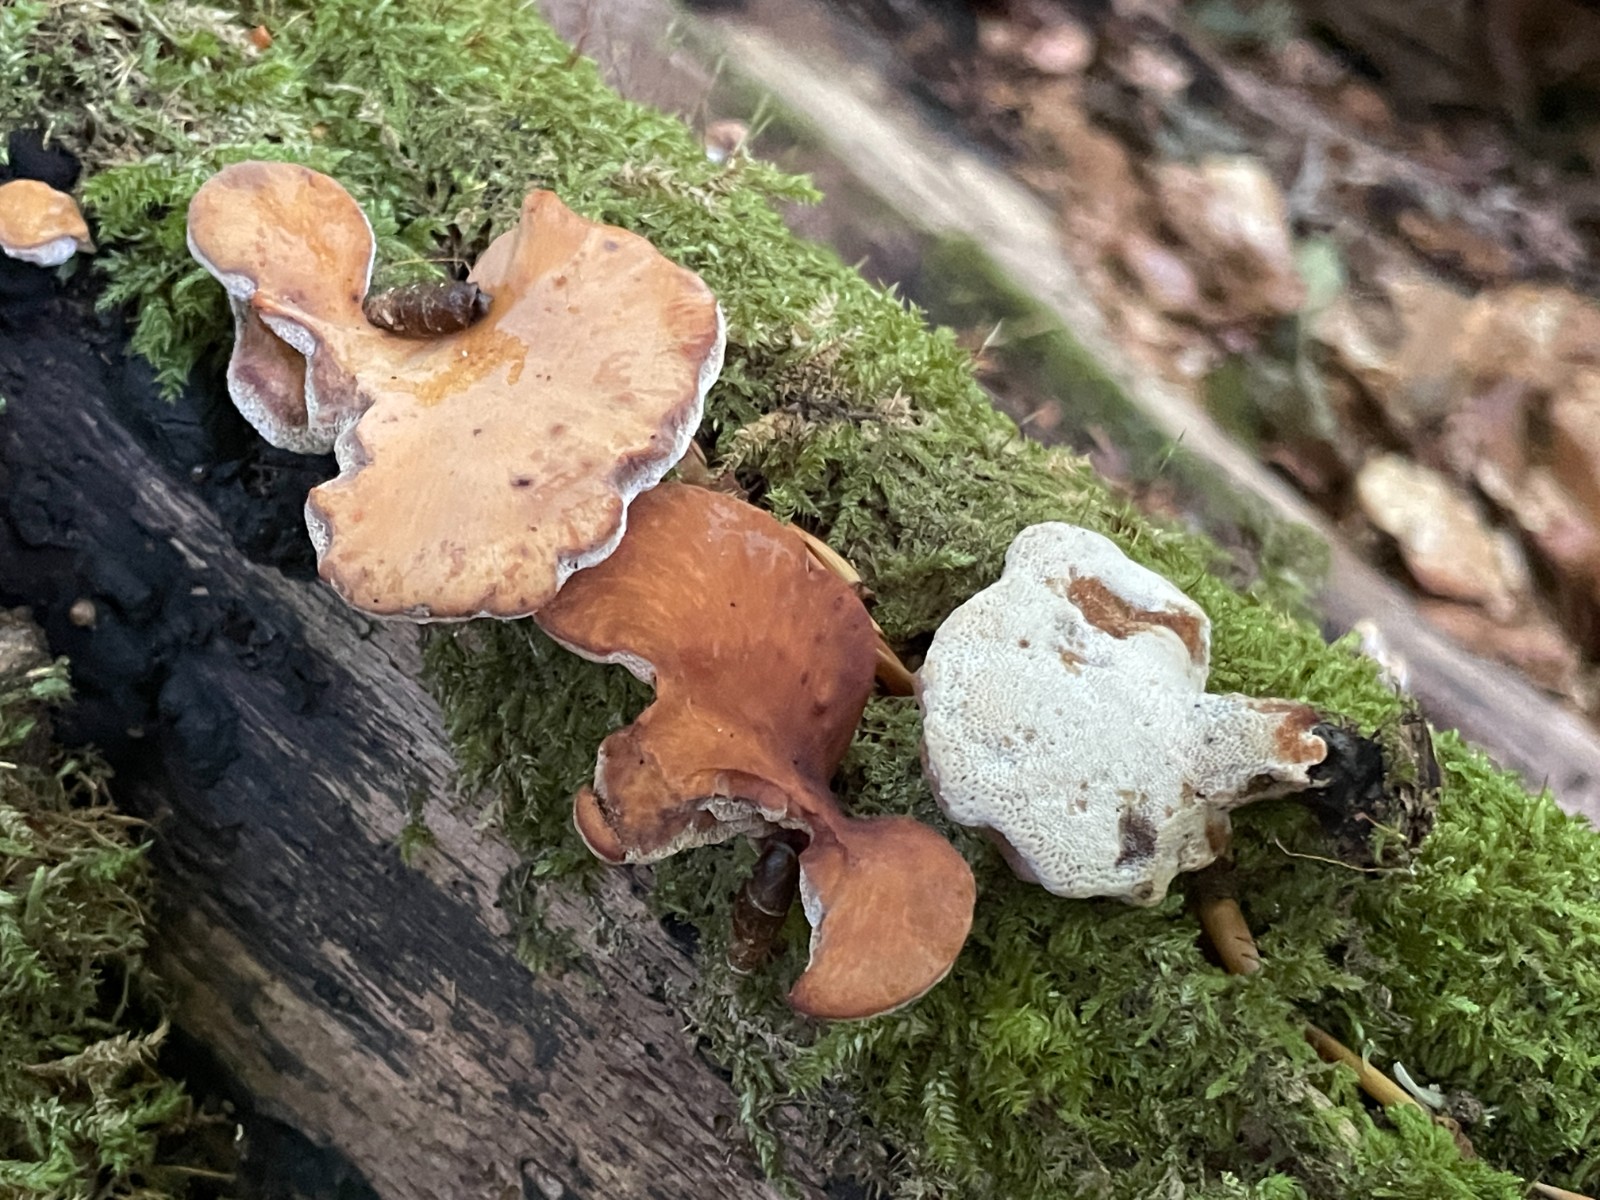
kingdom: Fungi
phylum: Basidiomycota
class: Agaricomycetes
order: Polyporales
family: Polyporaceae
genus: Cerioporus
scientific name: Cerioporus varius
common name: foranderlig stilkporesvamp
